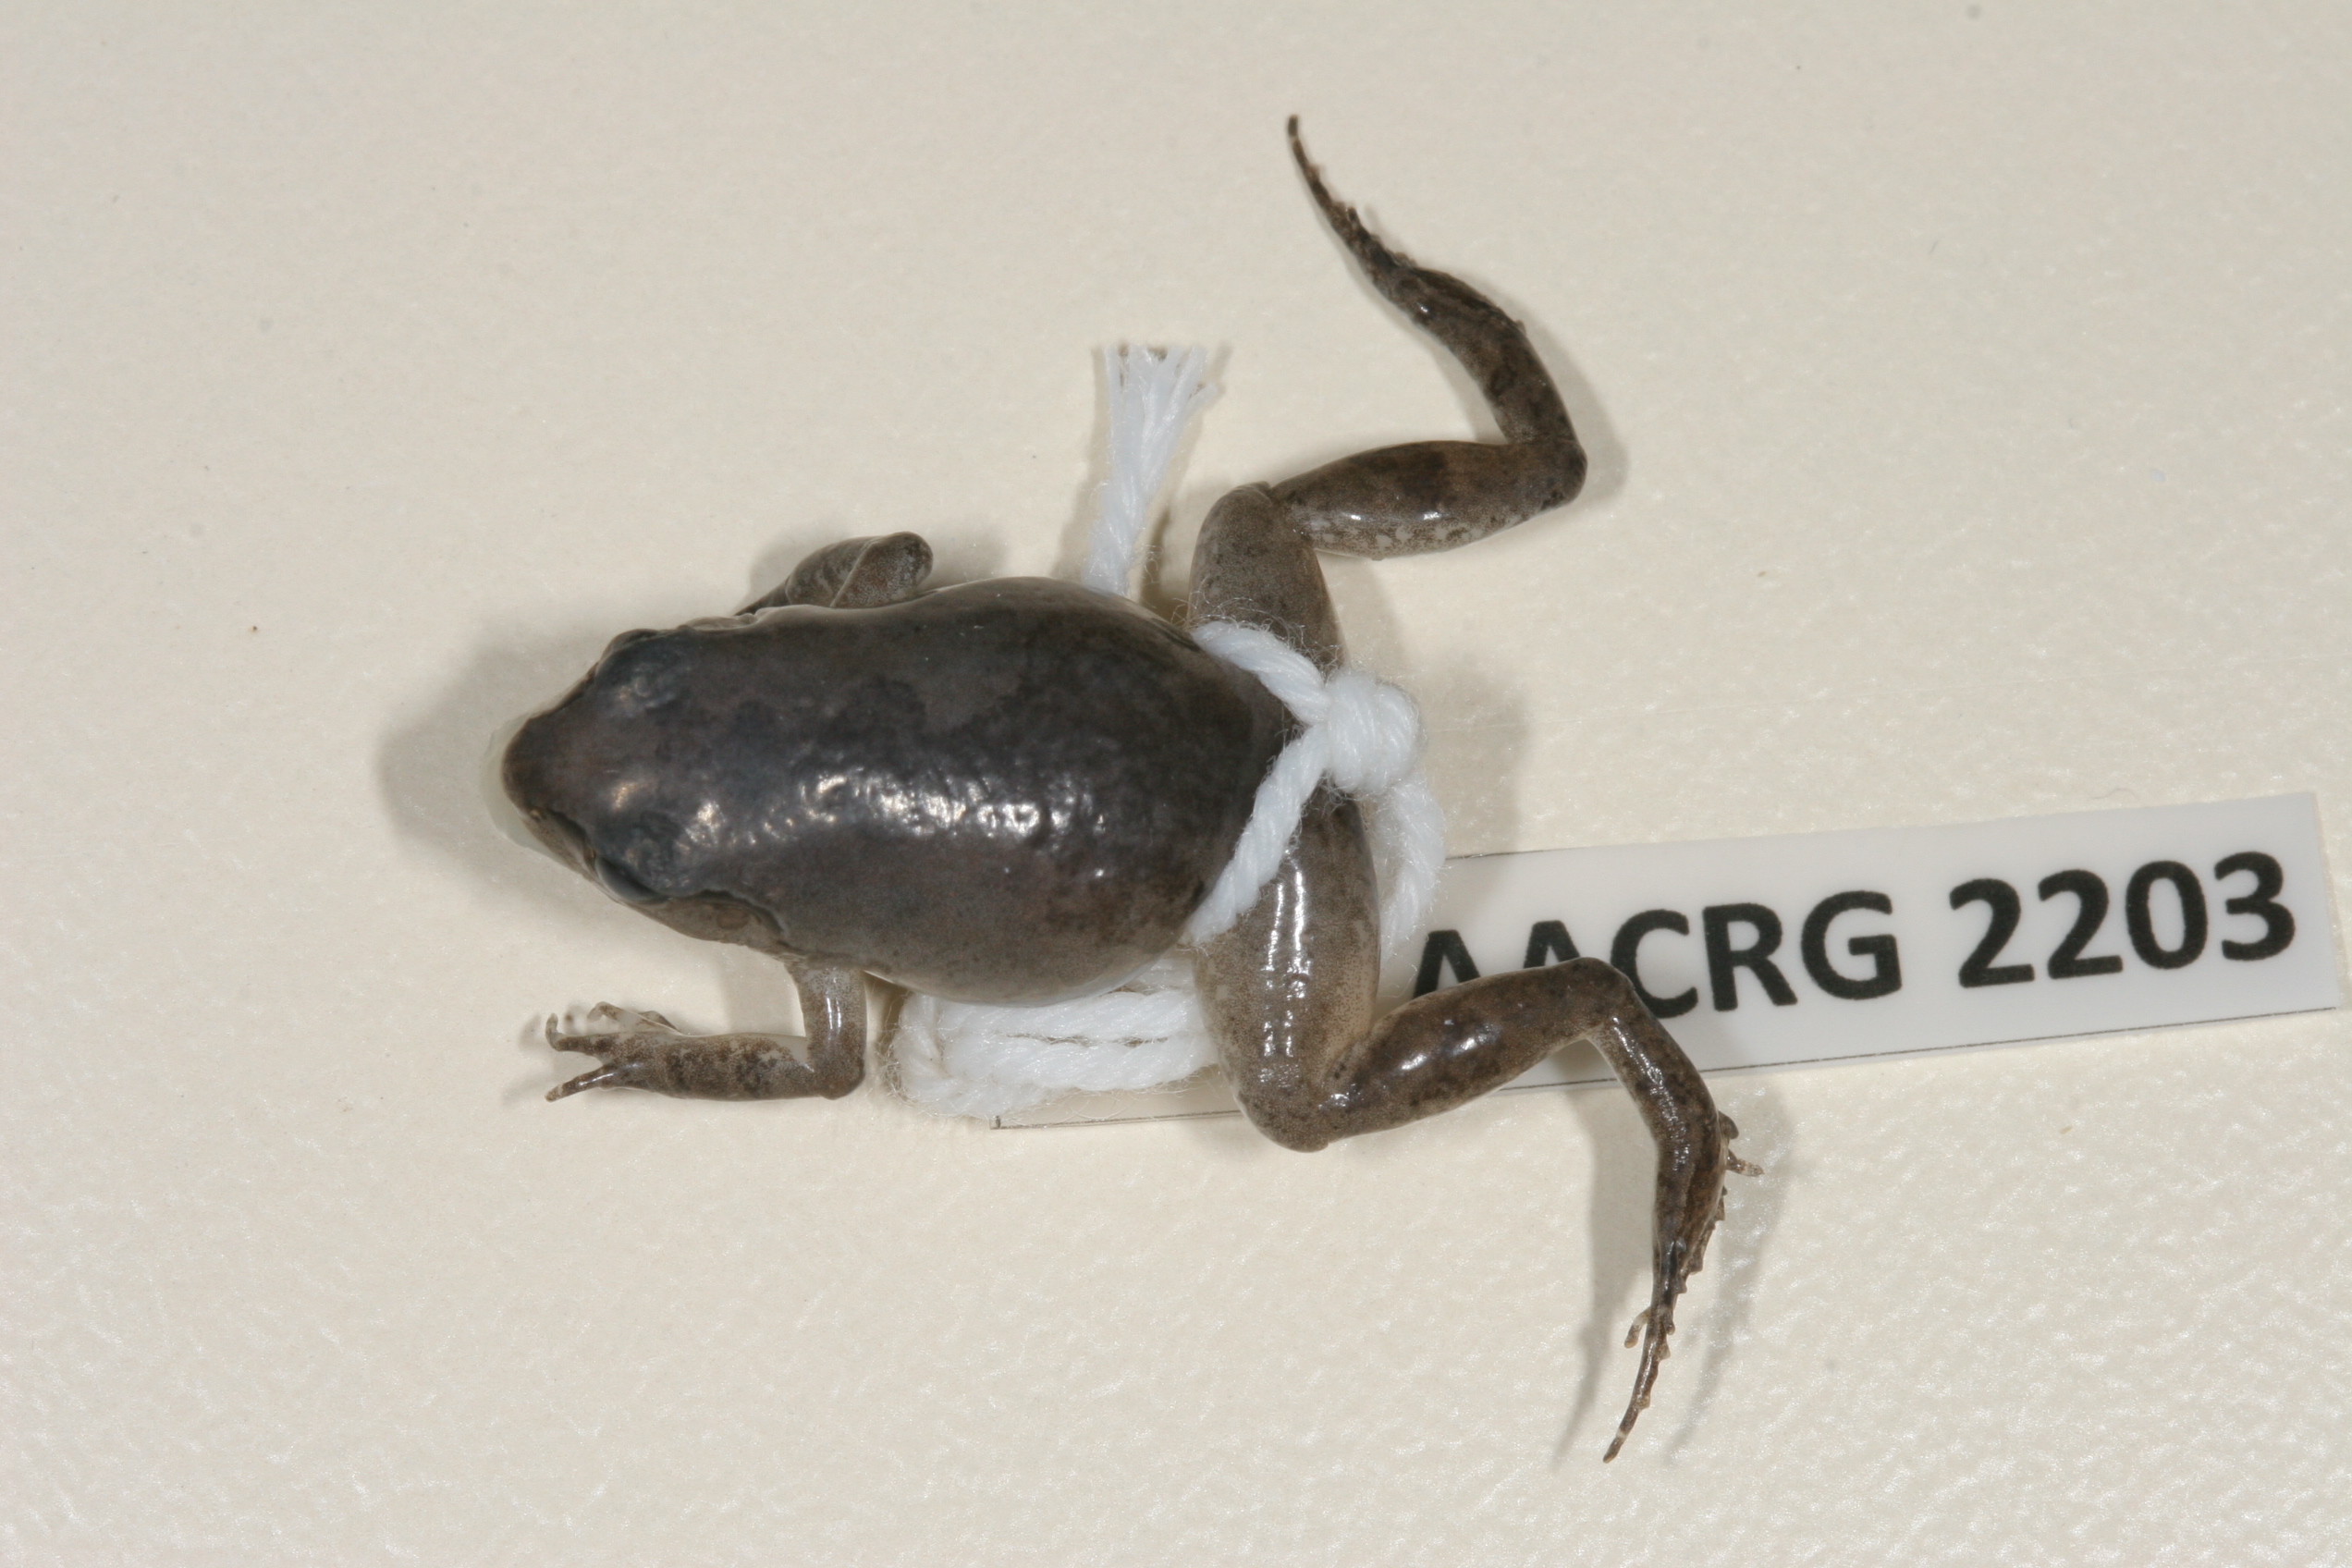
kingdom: Animalia
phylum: Chordata
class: Amphibia
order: Anura
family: Arthroleptidae
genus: Arthroleptis
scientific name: Arthroleptis wahlbergii
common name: Bush squeaker
